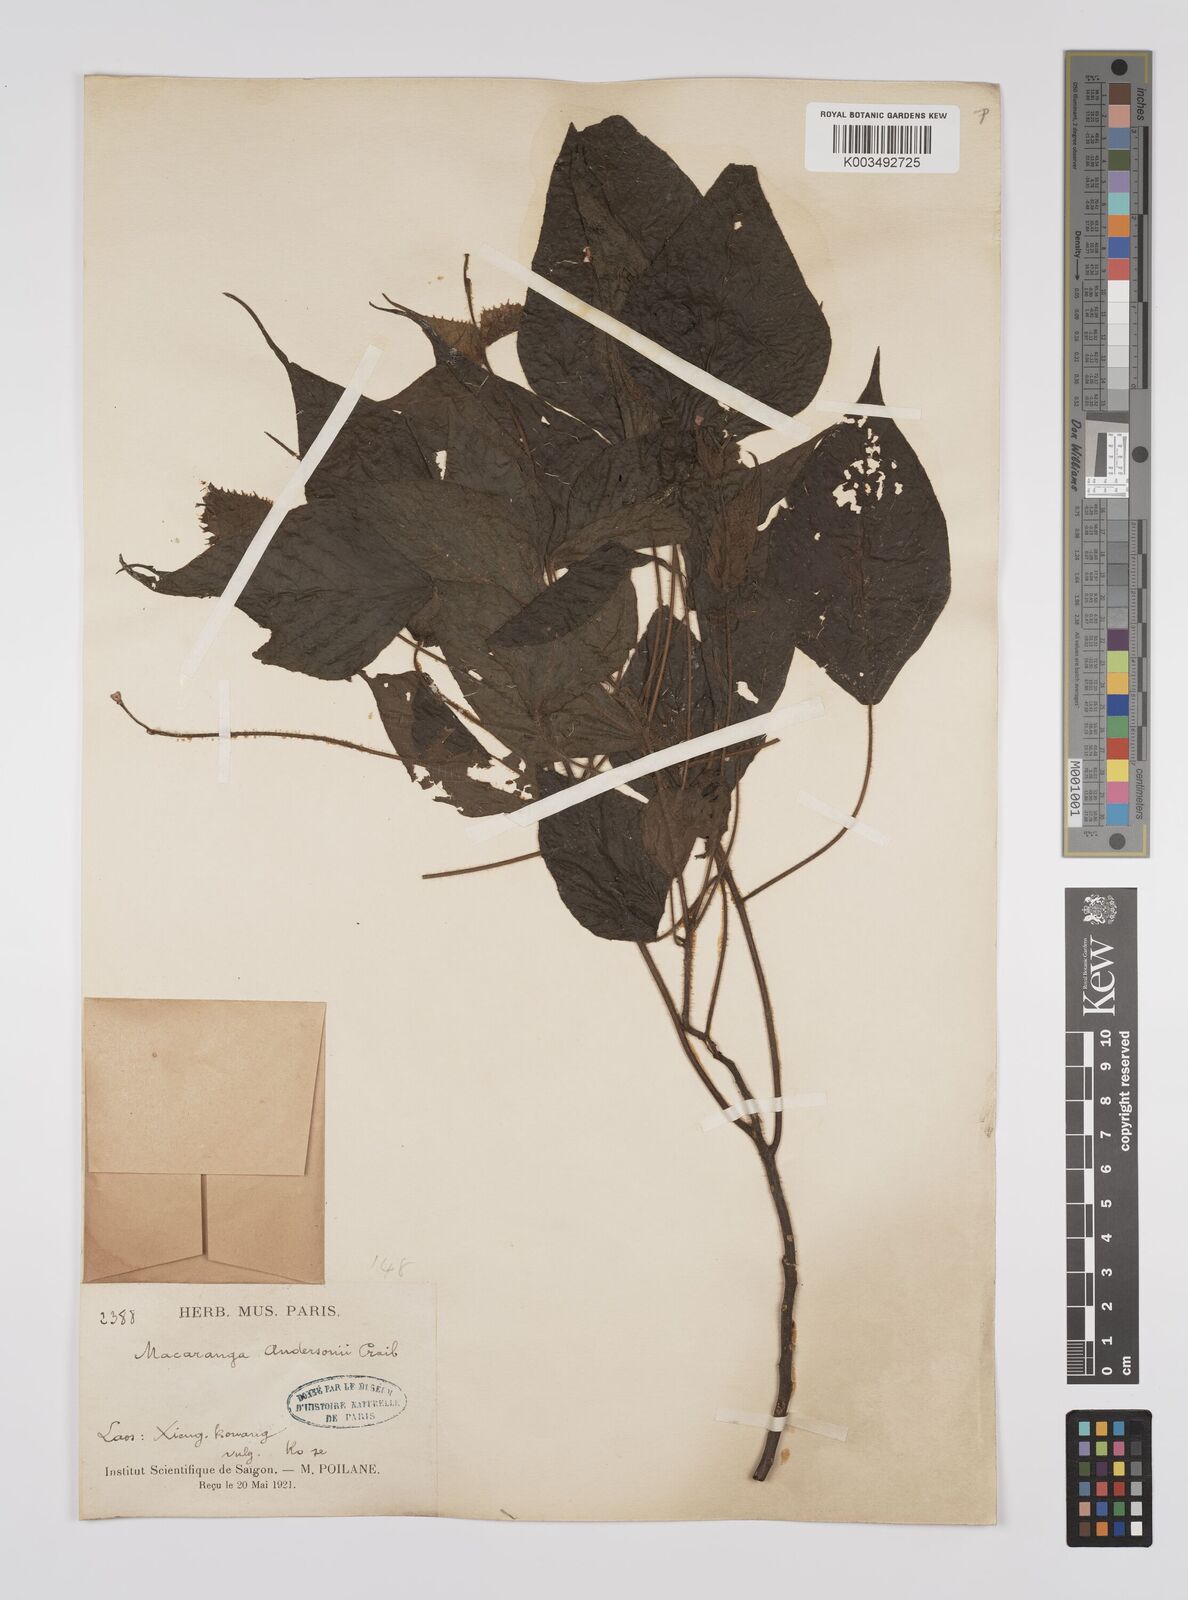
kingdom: Plantae
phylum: Tracheophyta
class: Magnoliopsida
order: Malpighiales
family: Euphorbiaceae
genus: Macaranga
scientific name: Macaranga kurzii
